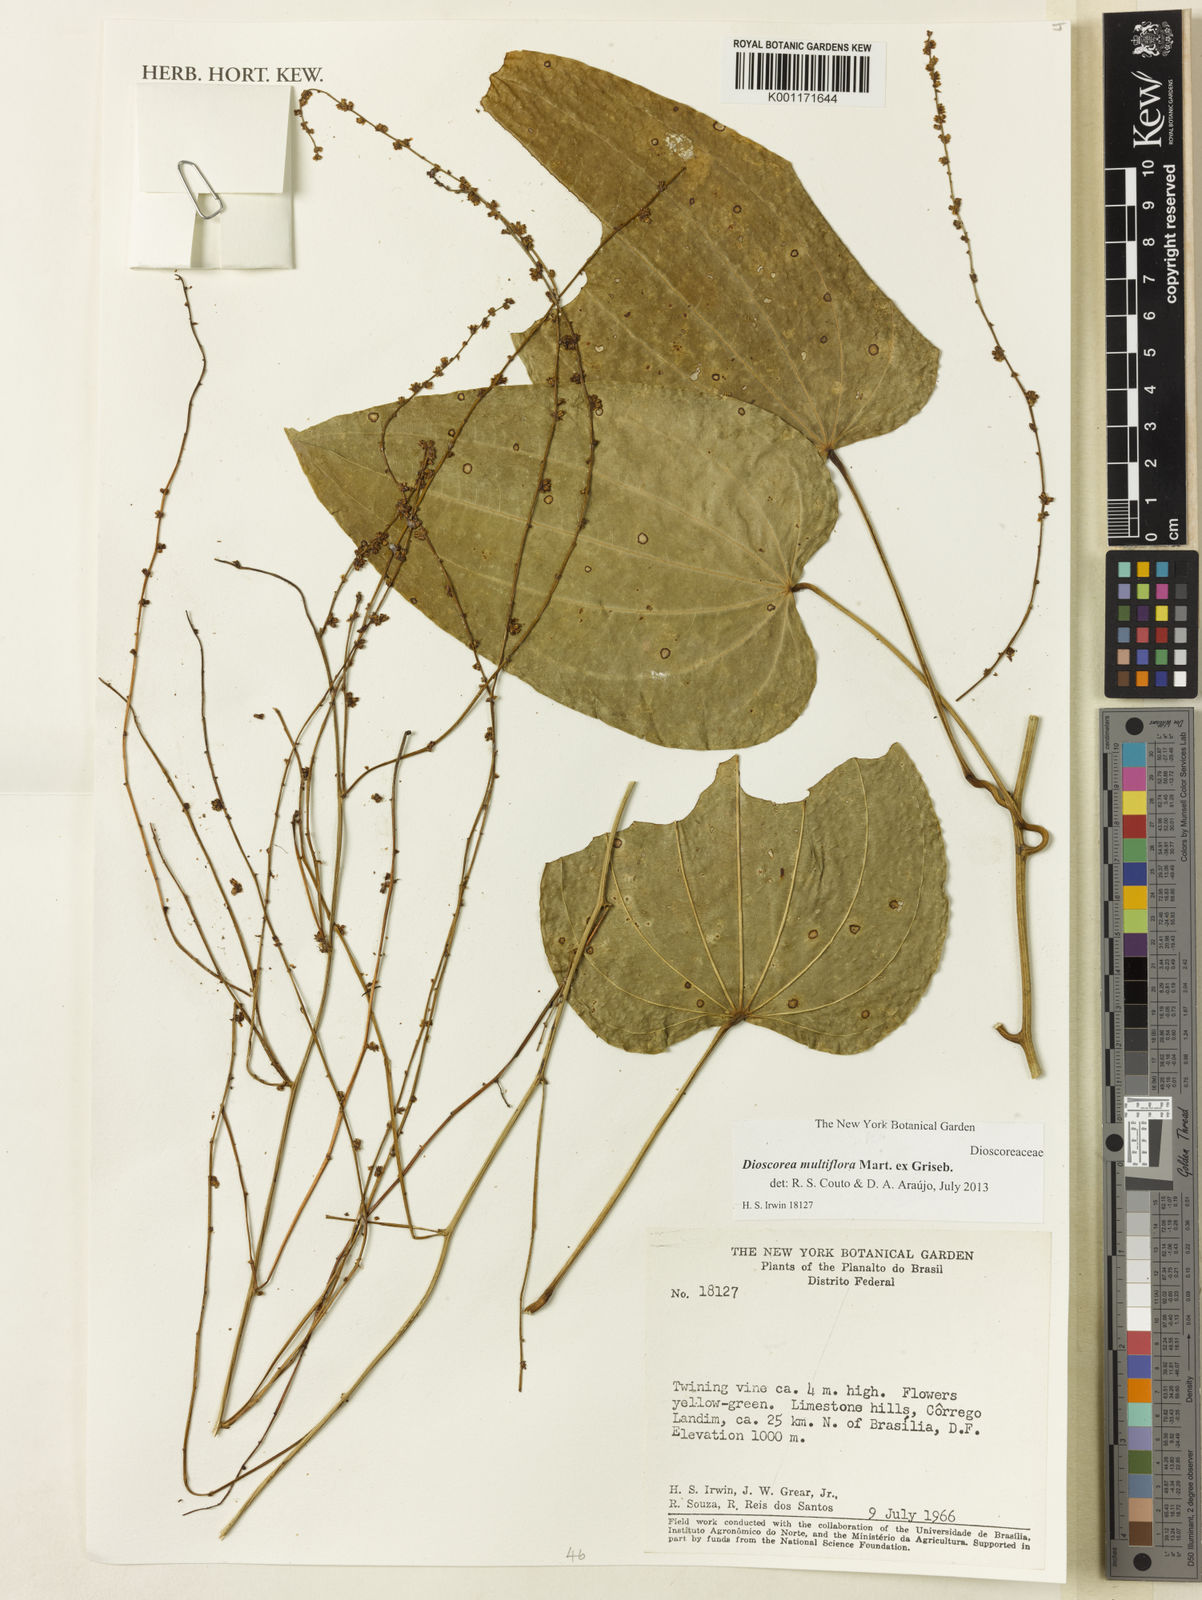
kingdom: Plantae
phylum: Tracheophyta
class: Liliopsida
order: Dioscoreales
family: Dioscoreaceae
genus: Dioscorea
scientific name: Dioscorea multiflora
